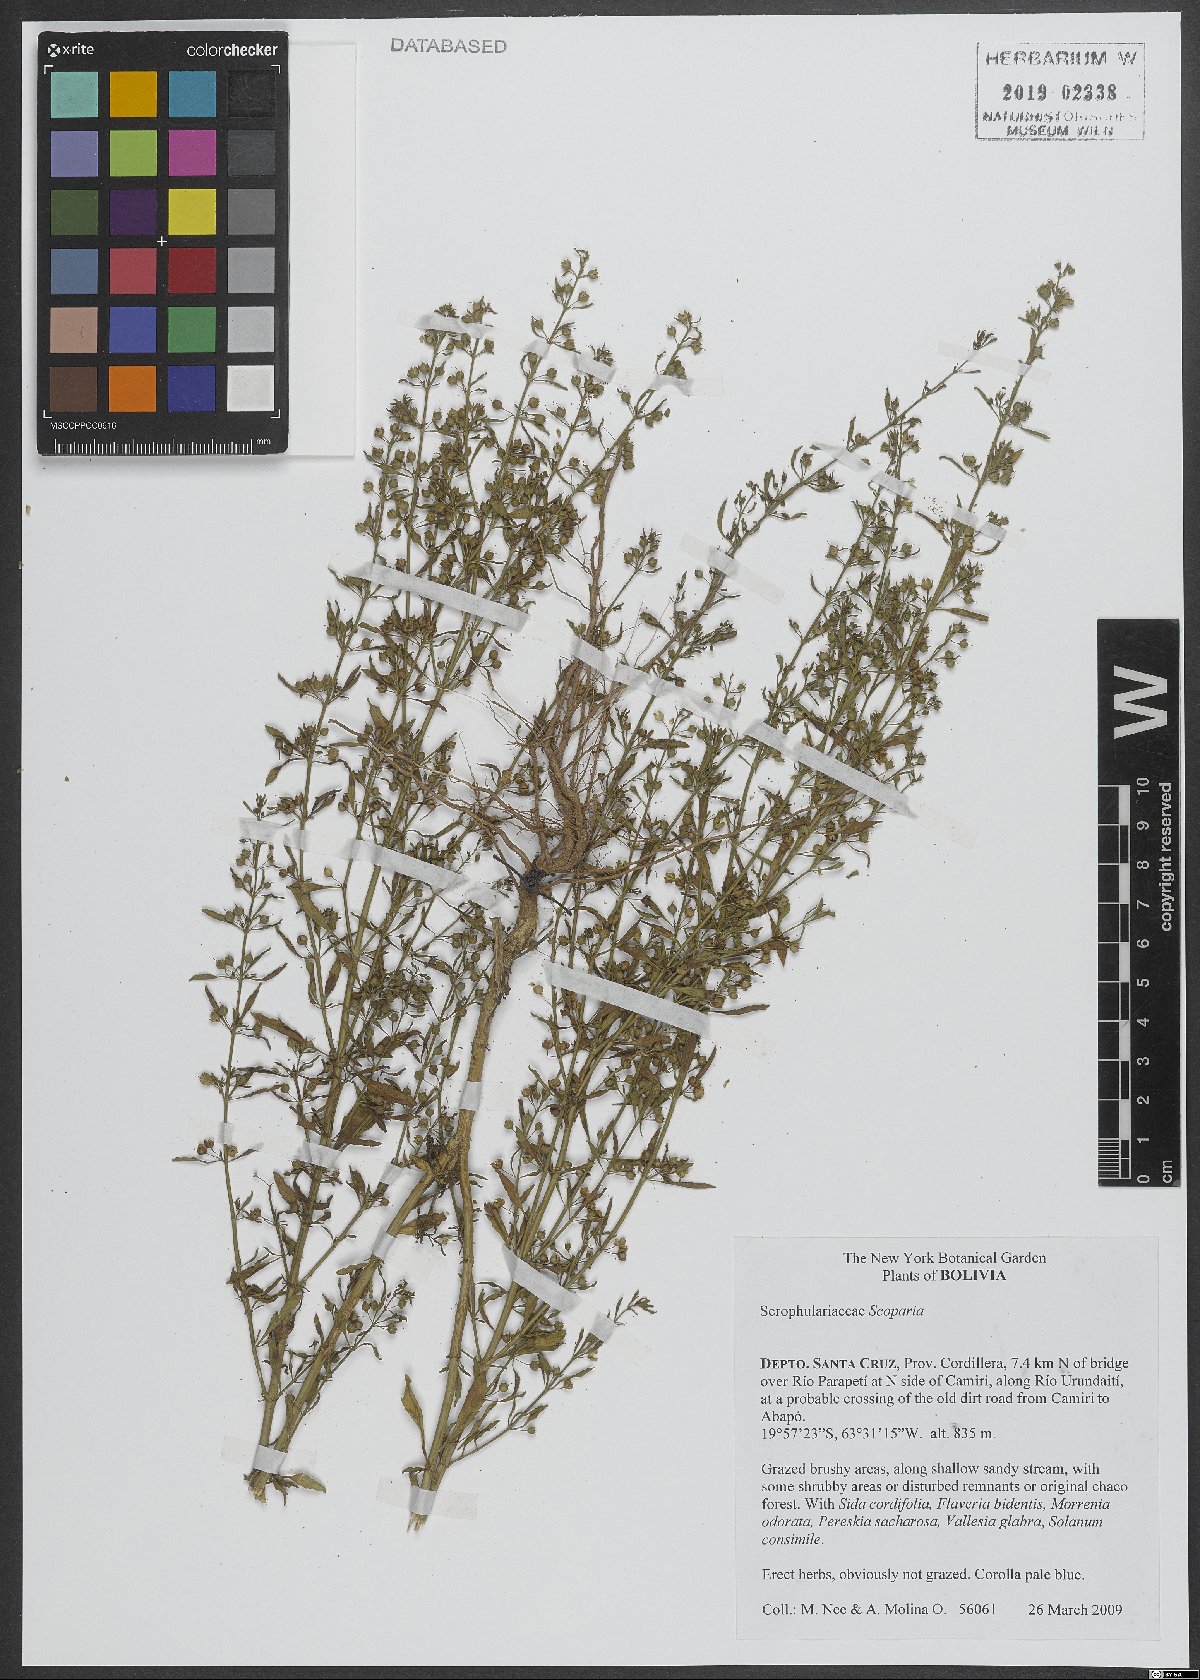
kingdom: Plantae
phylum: Tracheophyta
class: Magnoliopsida
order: Lamiales
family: Plantaginaceae
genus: Scoparia
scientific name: Scoparia
